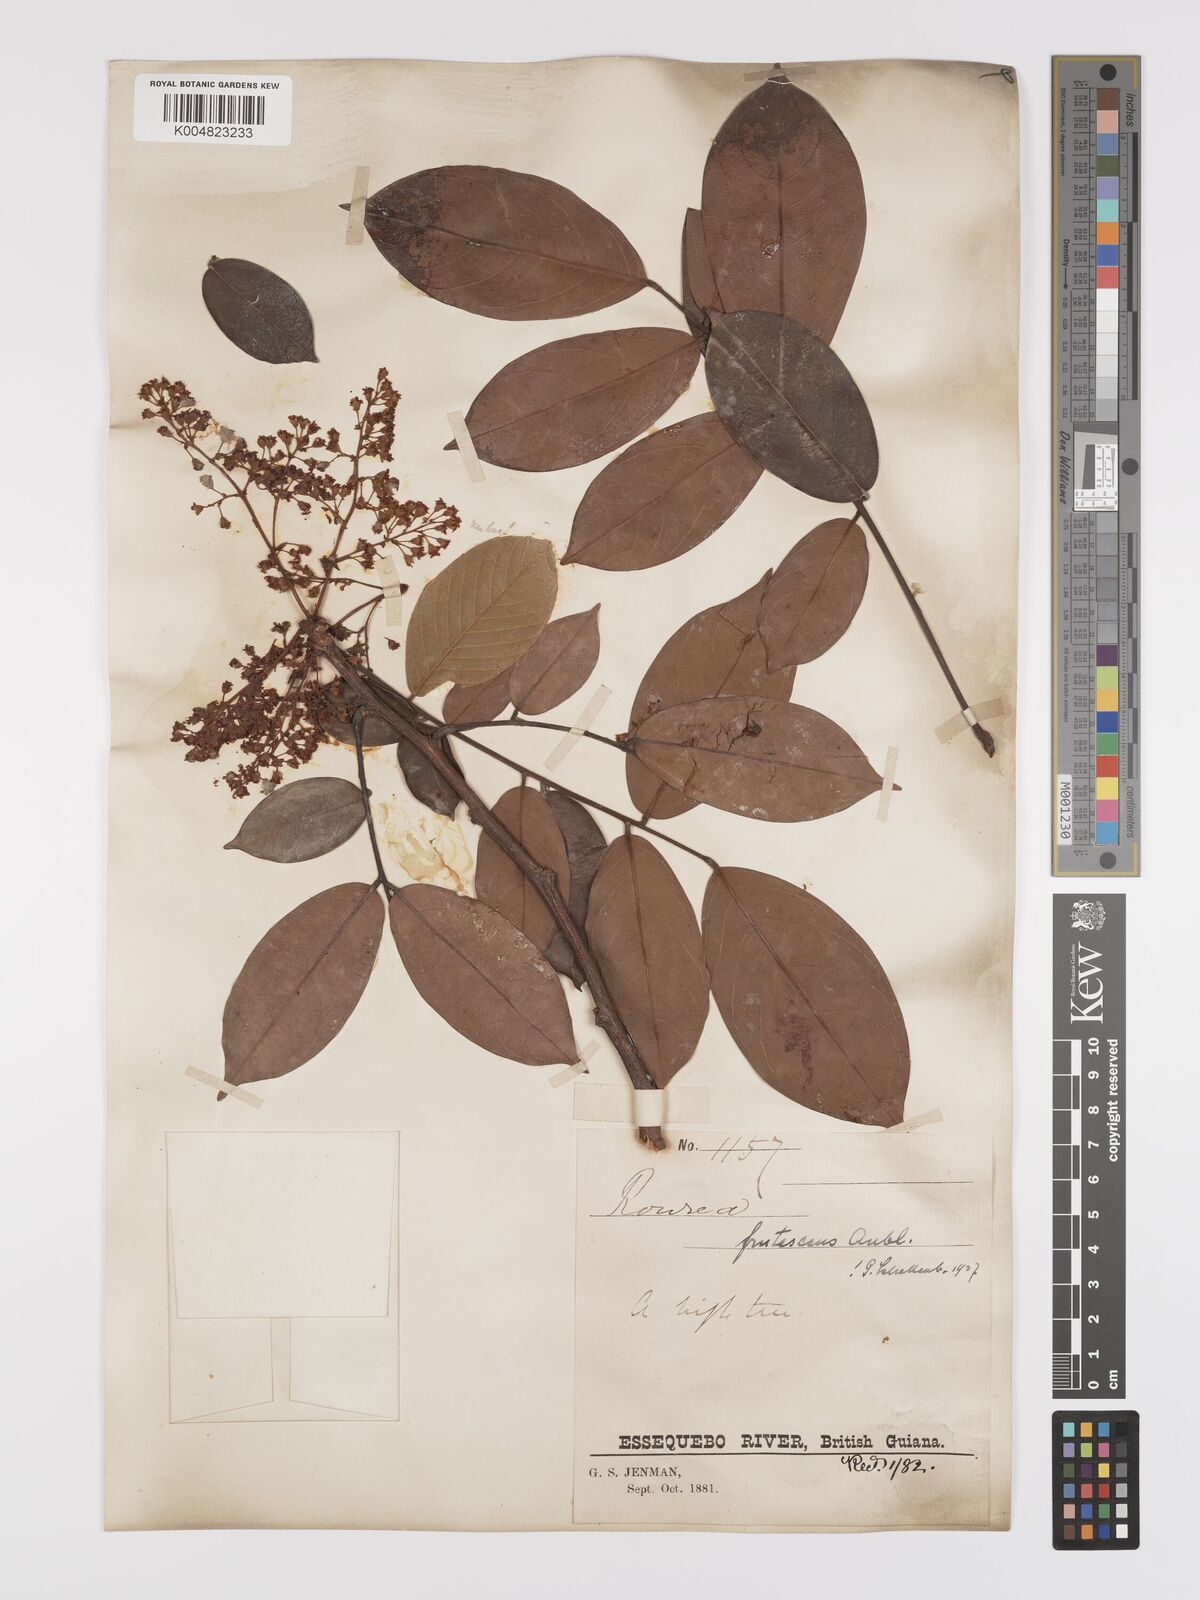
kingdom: Plantae
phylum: Tracheophyta
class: Magnoliopsida
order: Oxalidales
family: Connaraceae
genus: Rourea
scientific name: Rourea frutescens
